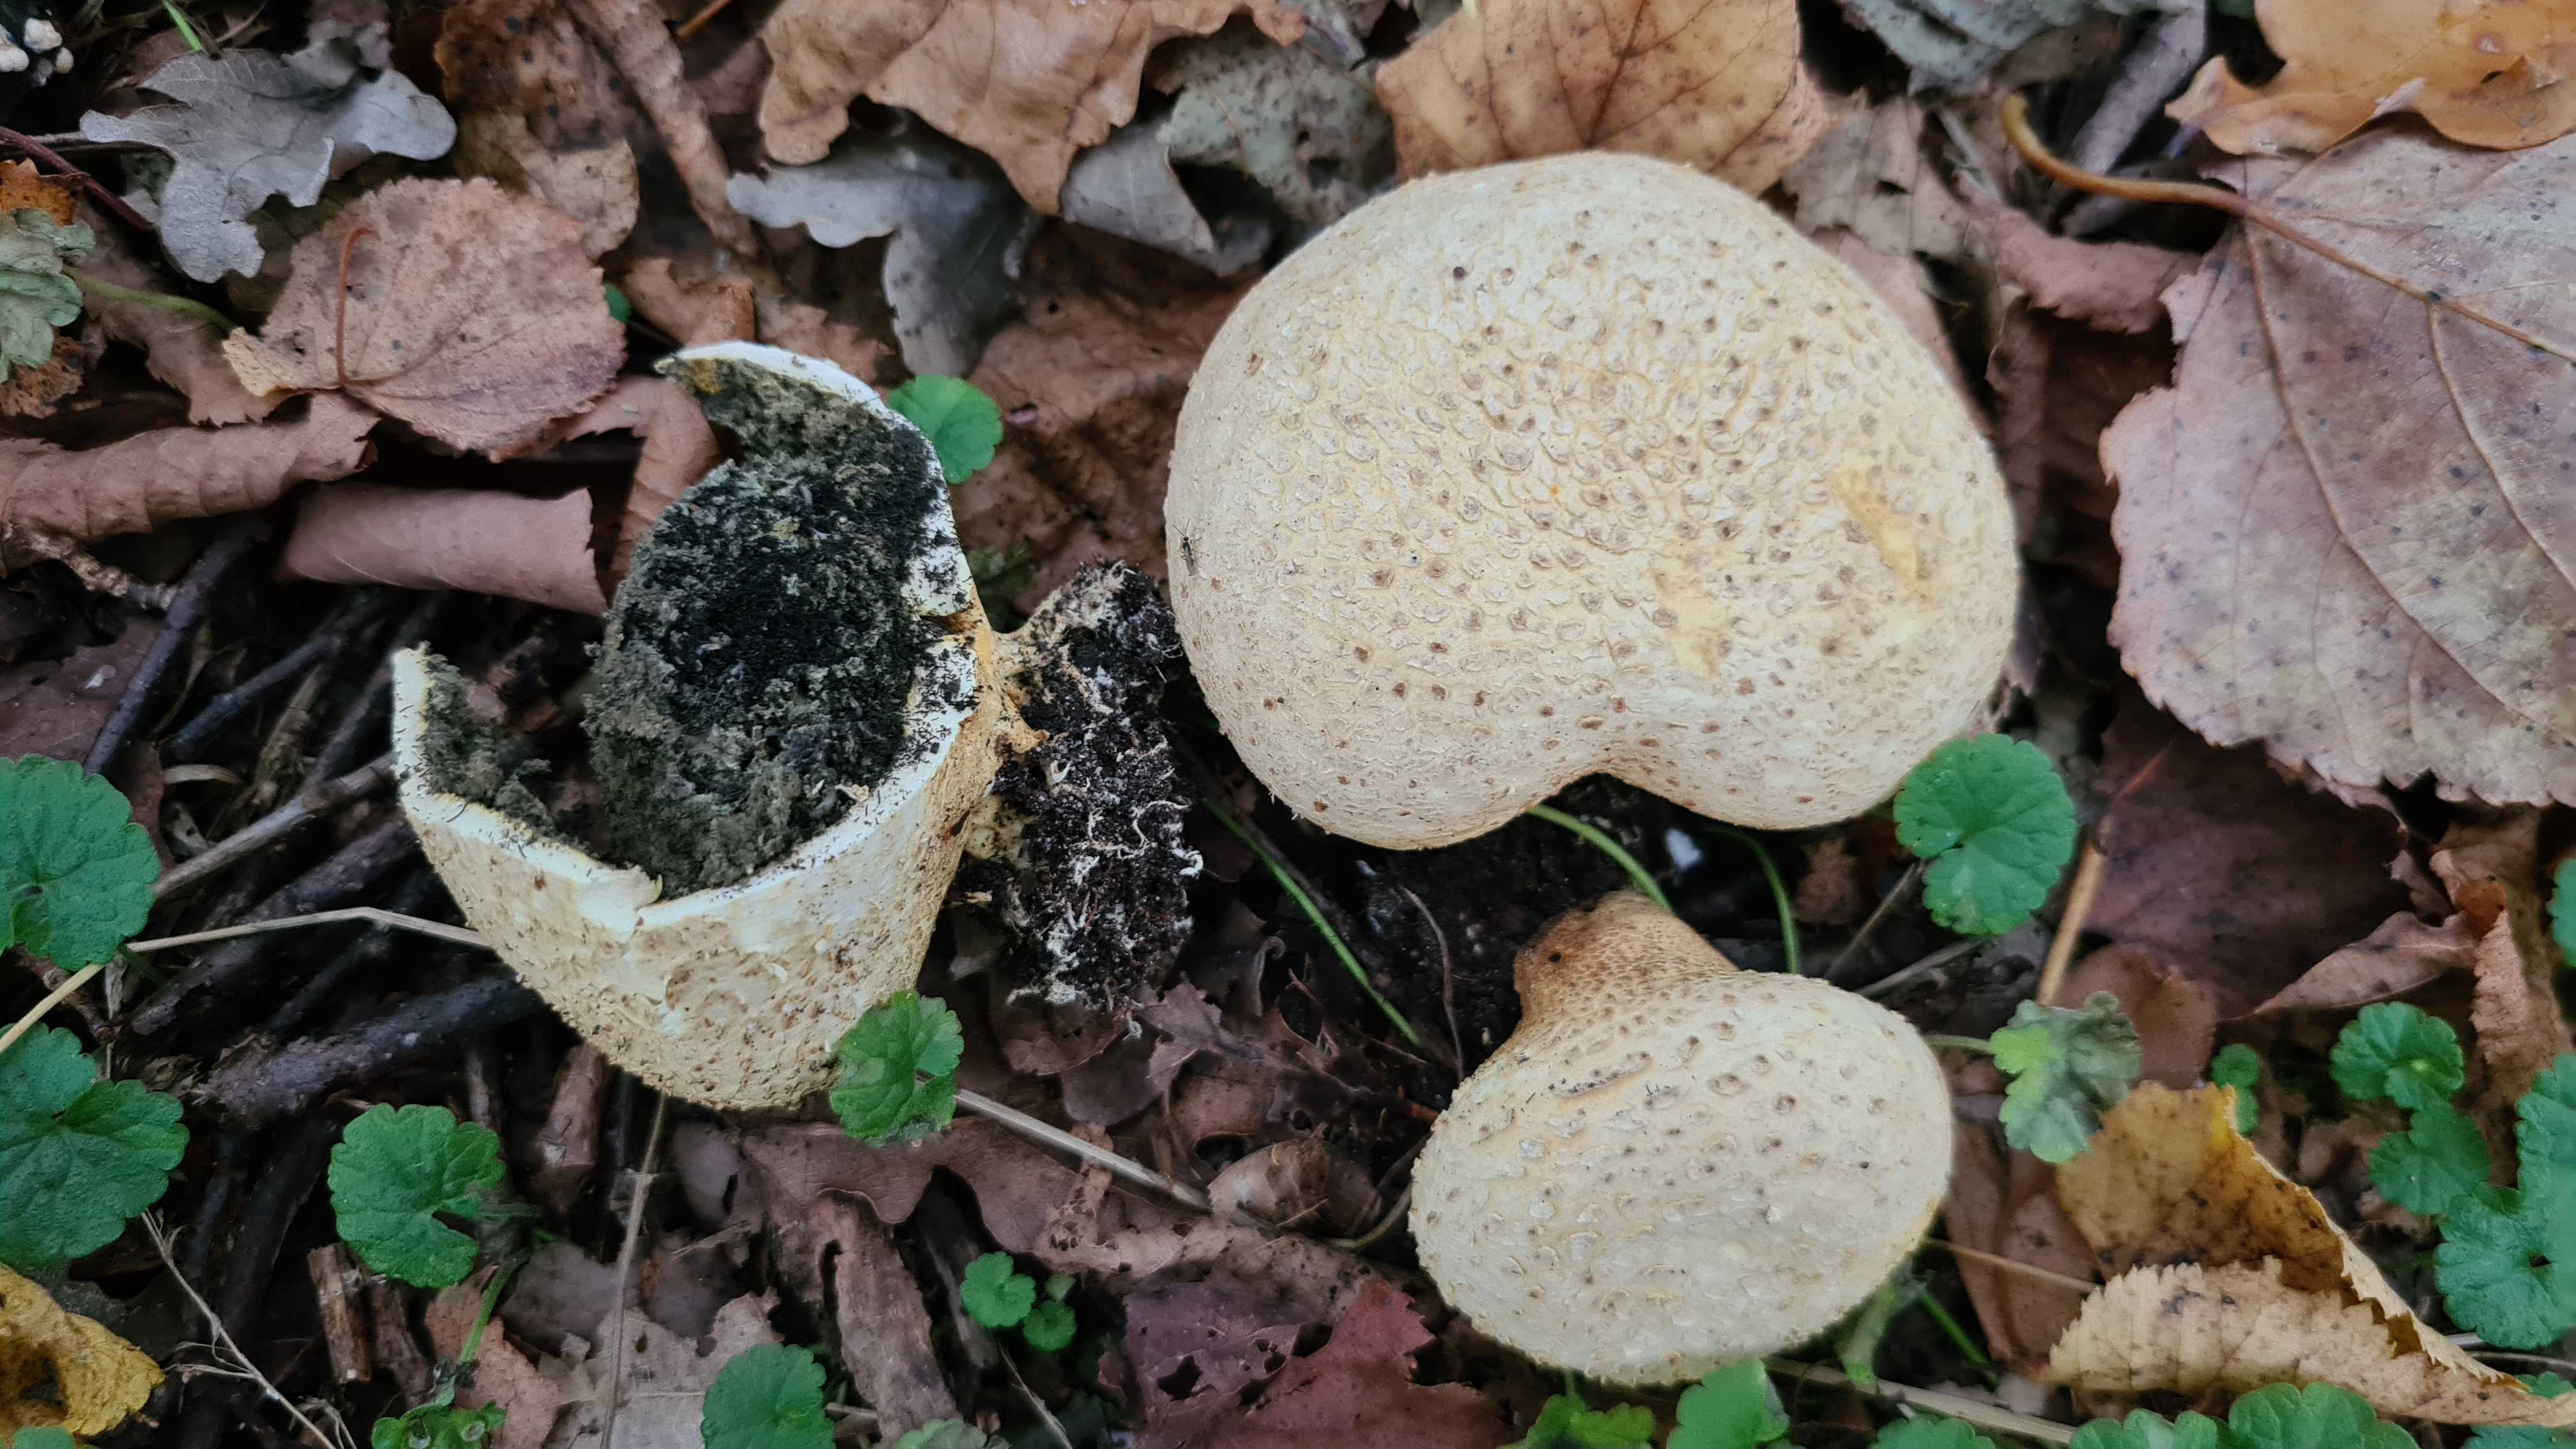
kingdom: Fungi
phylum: Basidiomycota
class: Agaricomycetes
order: Boletales
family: Sclerodermataceae
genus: Scleroderma
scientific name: Scleroderma citrinum
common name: almindelig bruskbold
